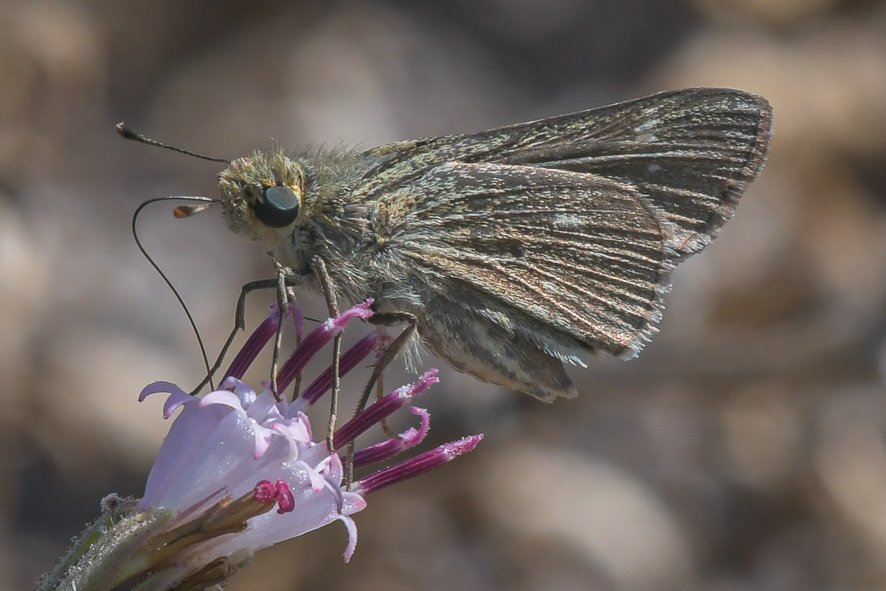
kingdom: Animalia
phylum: Arthropoda
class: Insecta
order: Lepidoptera
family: Hesperiidae
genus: Panoquina
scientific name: Panoquina errans
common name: Wandering Skipper
